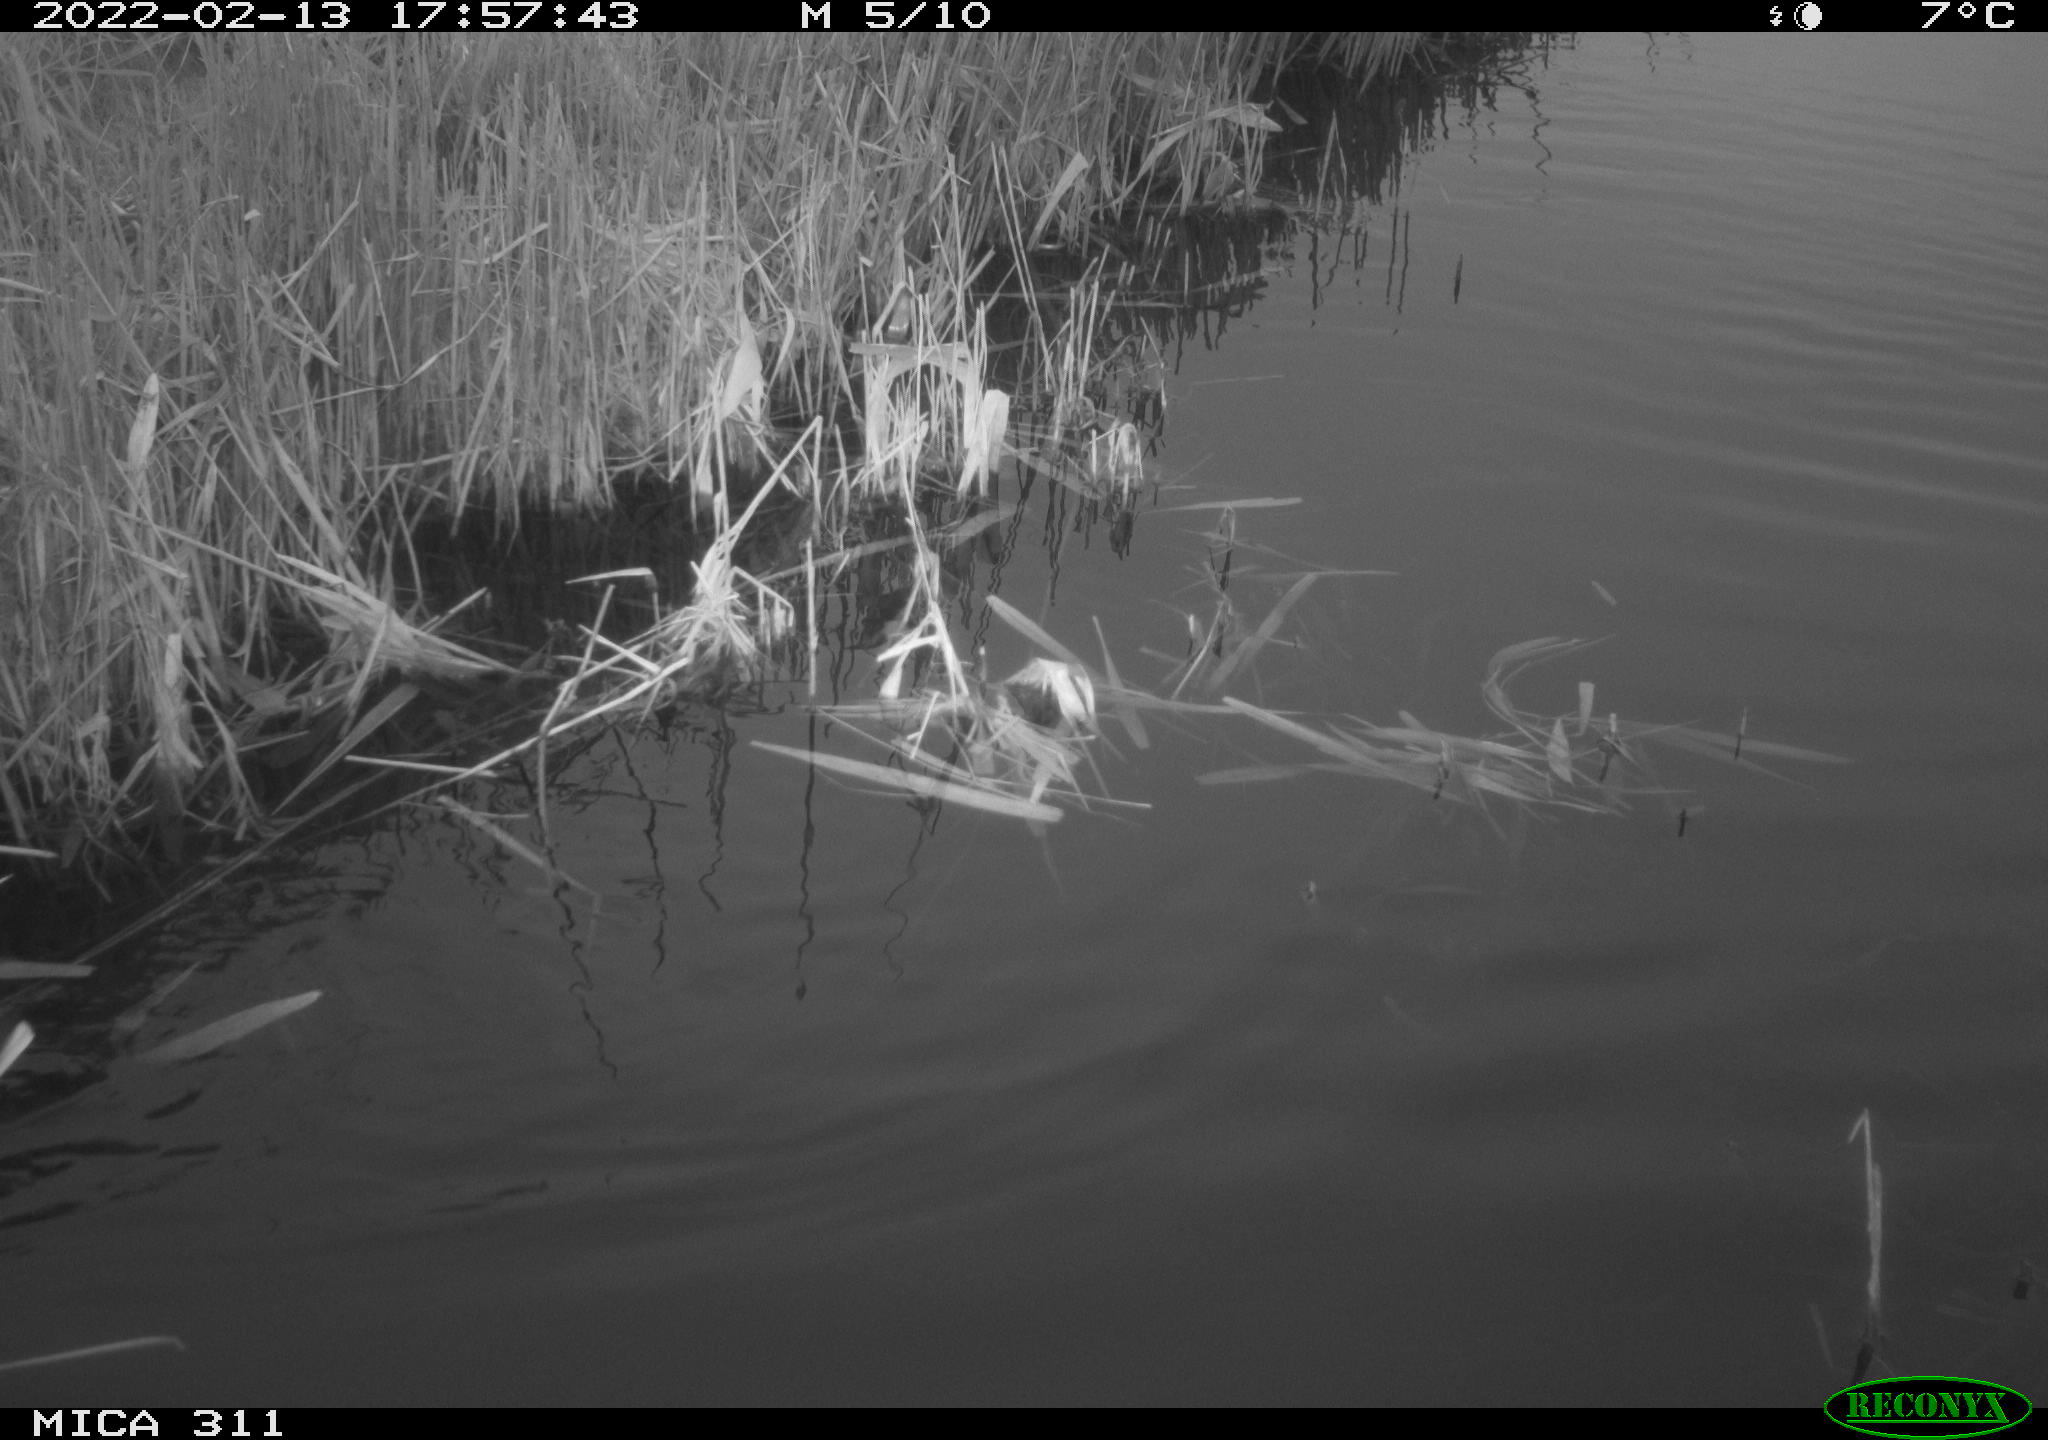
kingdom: Animalia
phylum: Chordata
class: Aves
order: Gruiformes
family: Rallidae
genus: Gallinula
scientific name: Gallinula chloropus
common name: Common moorhen
